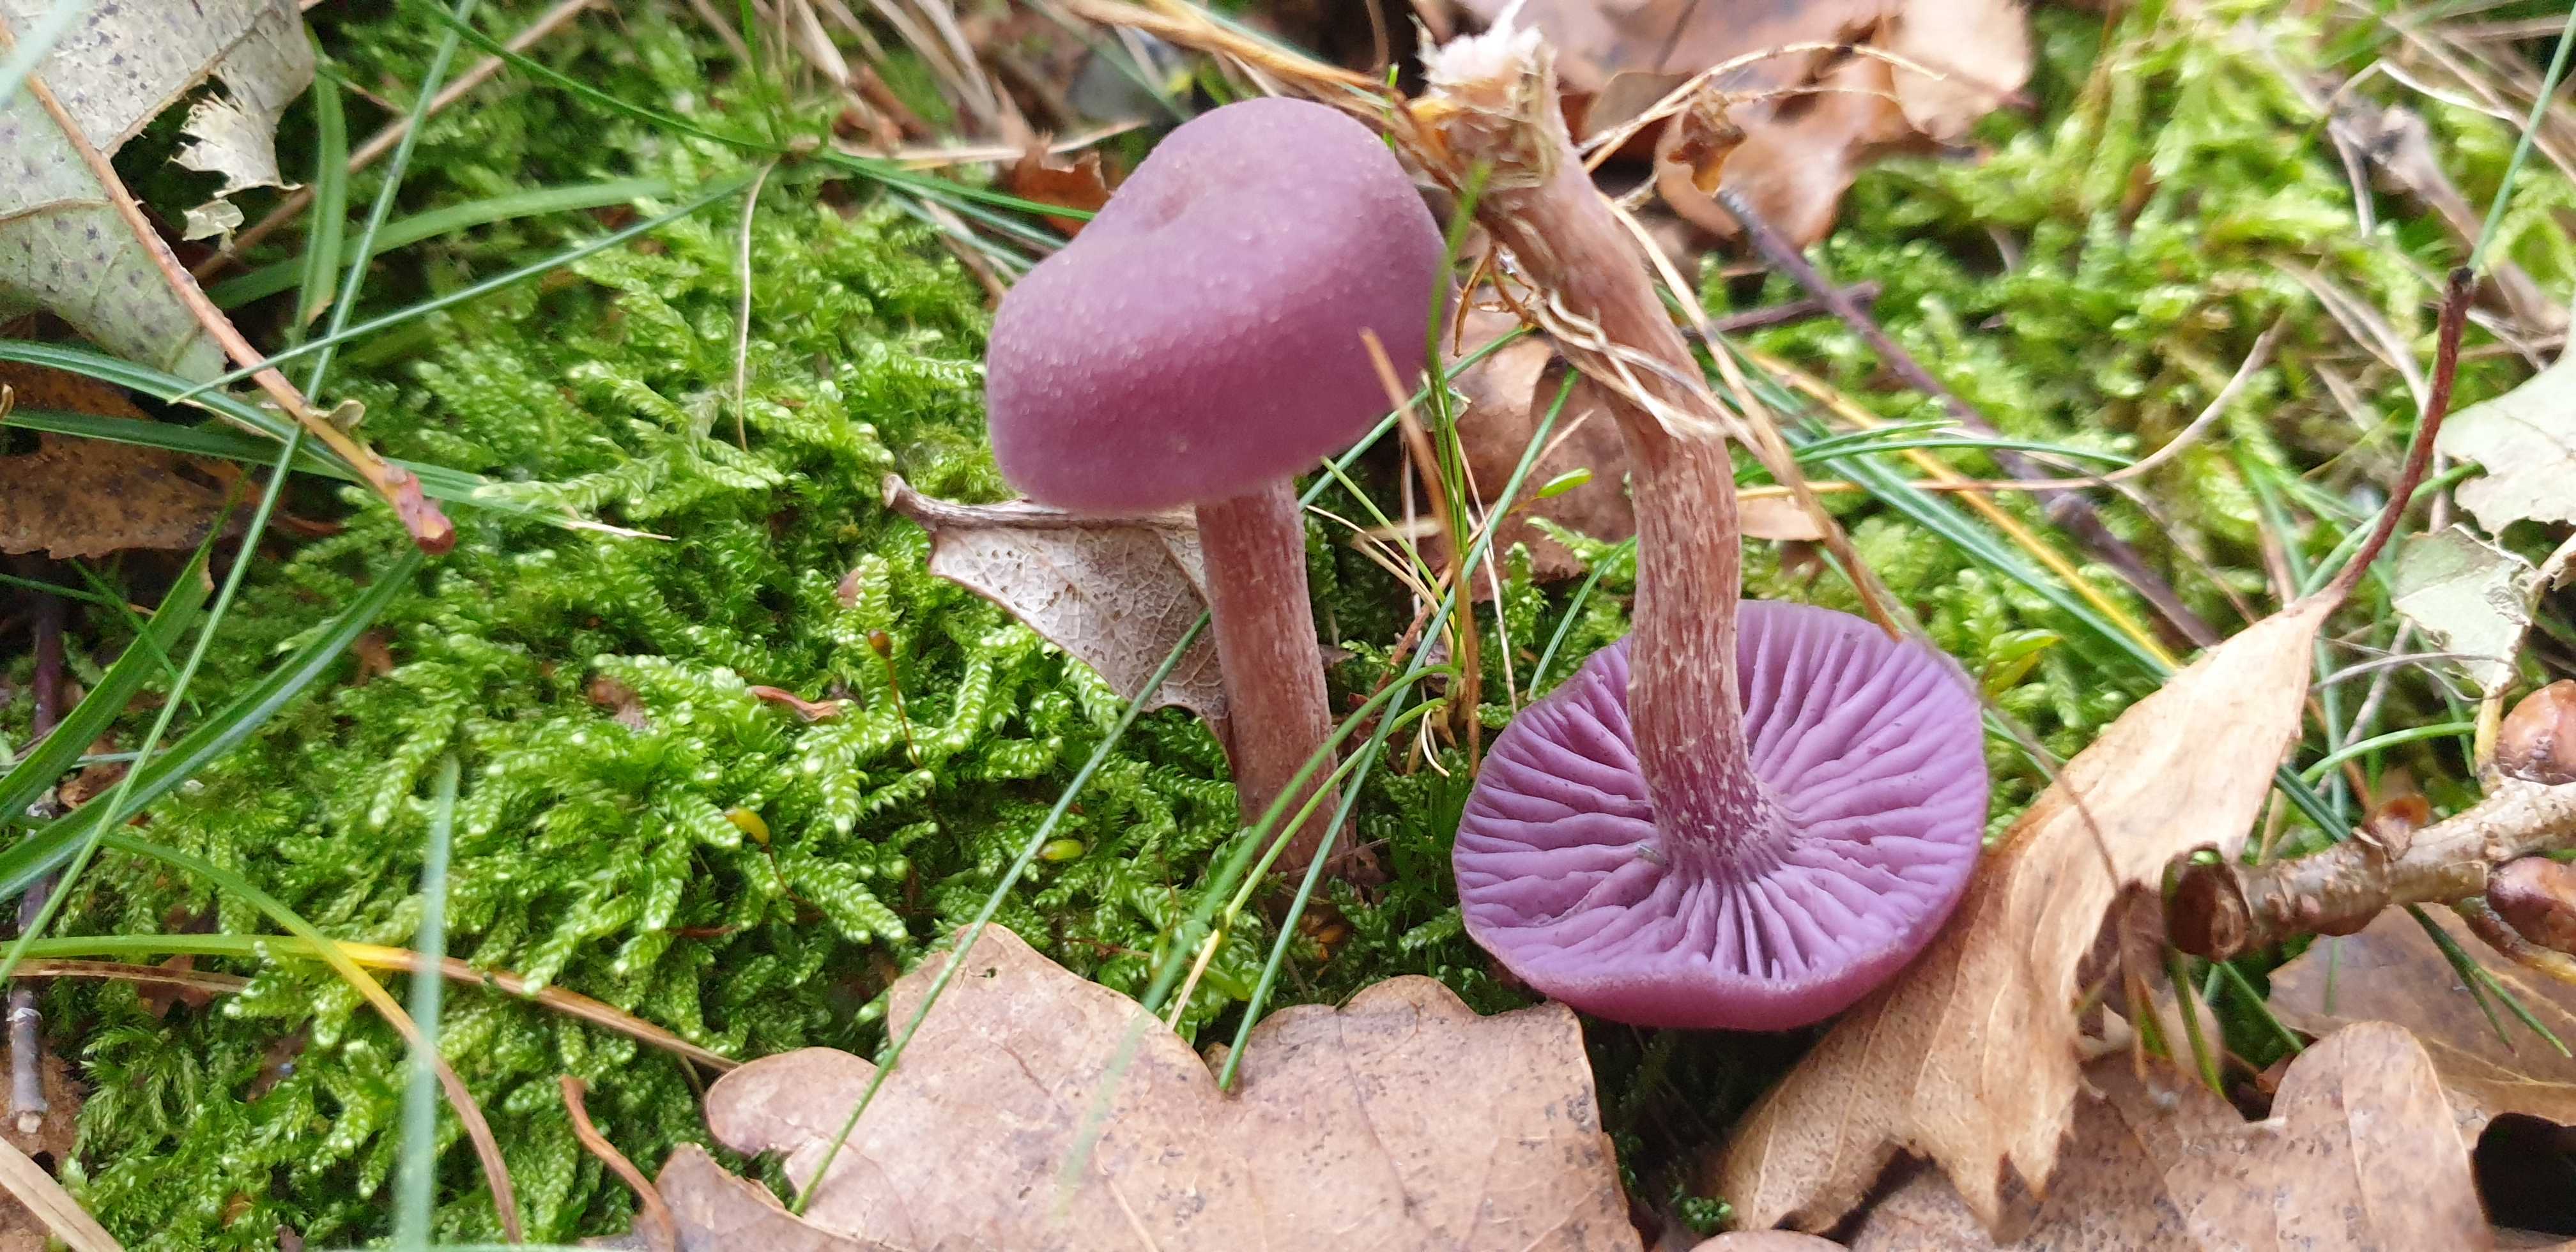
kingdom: Fungi
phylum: Basidiomycota
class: Agaricomycetes
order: Agaricales
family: Hydnangiaceae
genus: Laccaria
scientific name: Laccaria amethystina
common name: violet ametysthat
